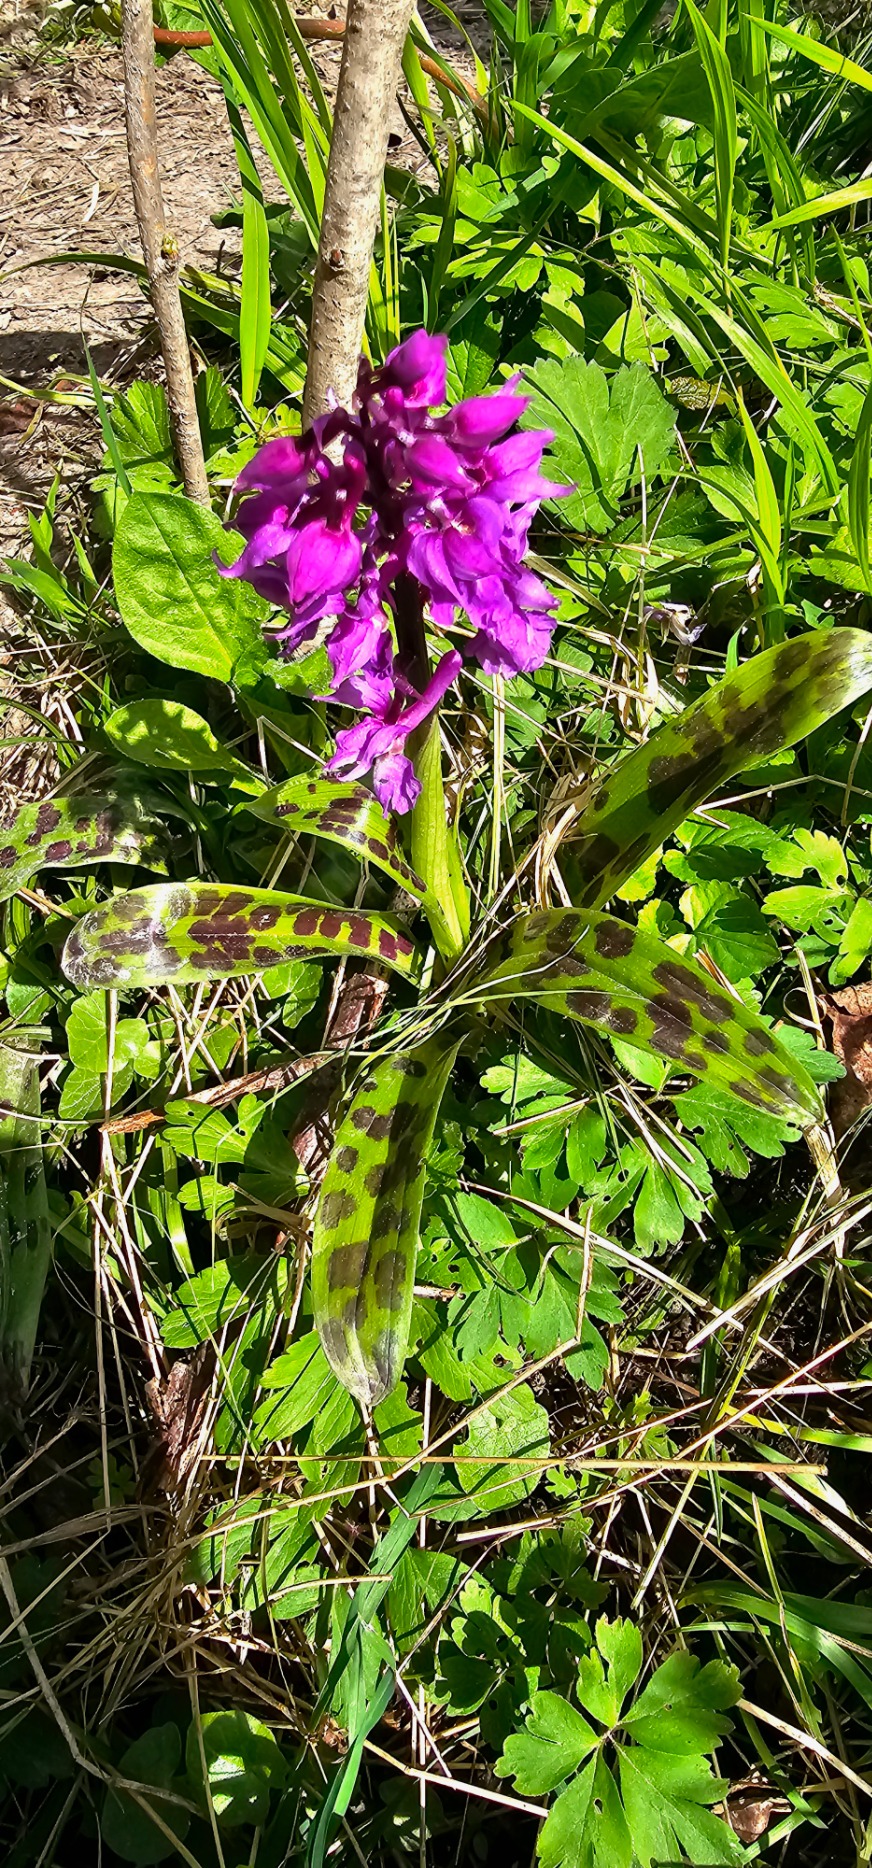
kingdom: Plantae
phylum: Tracheophyta
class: Liliopsida
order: Asparagales
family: Orchidaceae
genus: Orchis
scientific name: Orchis mascula
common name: Tyndakset gøgeurt
